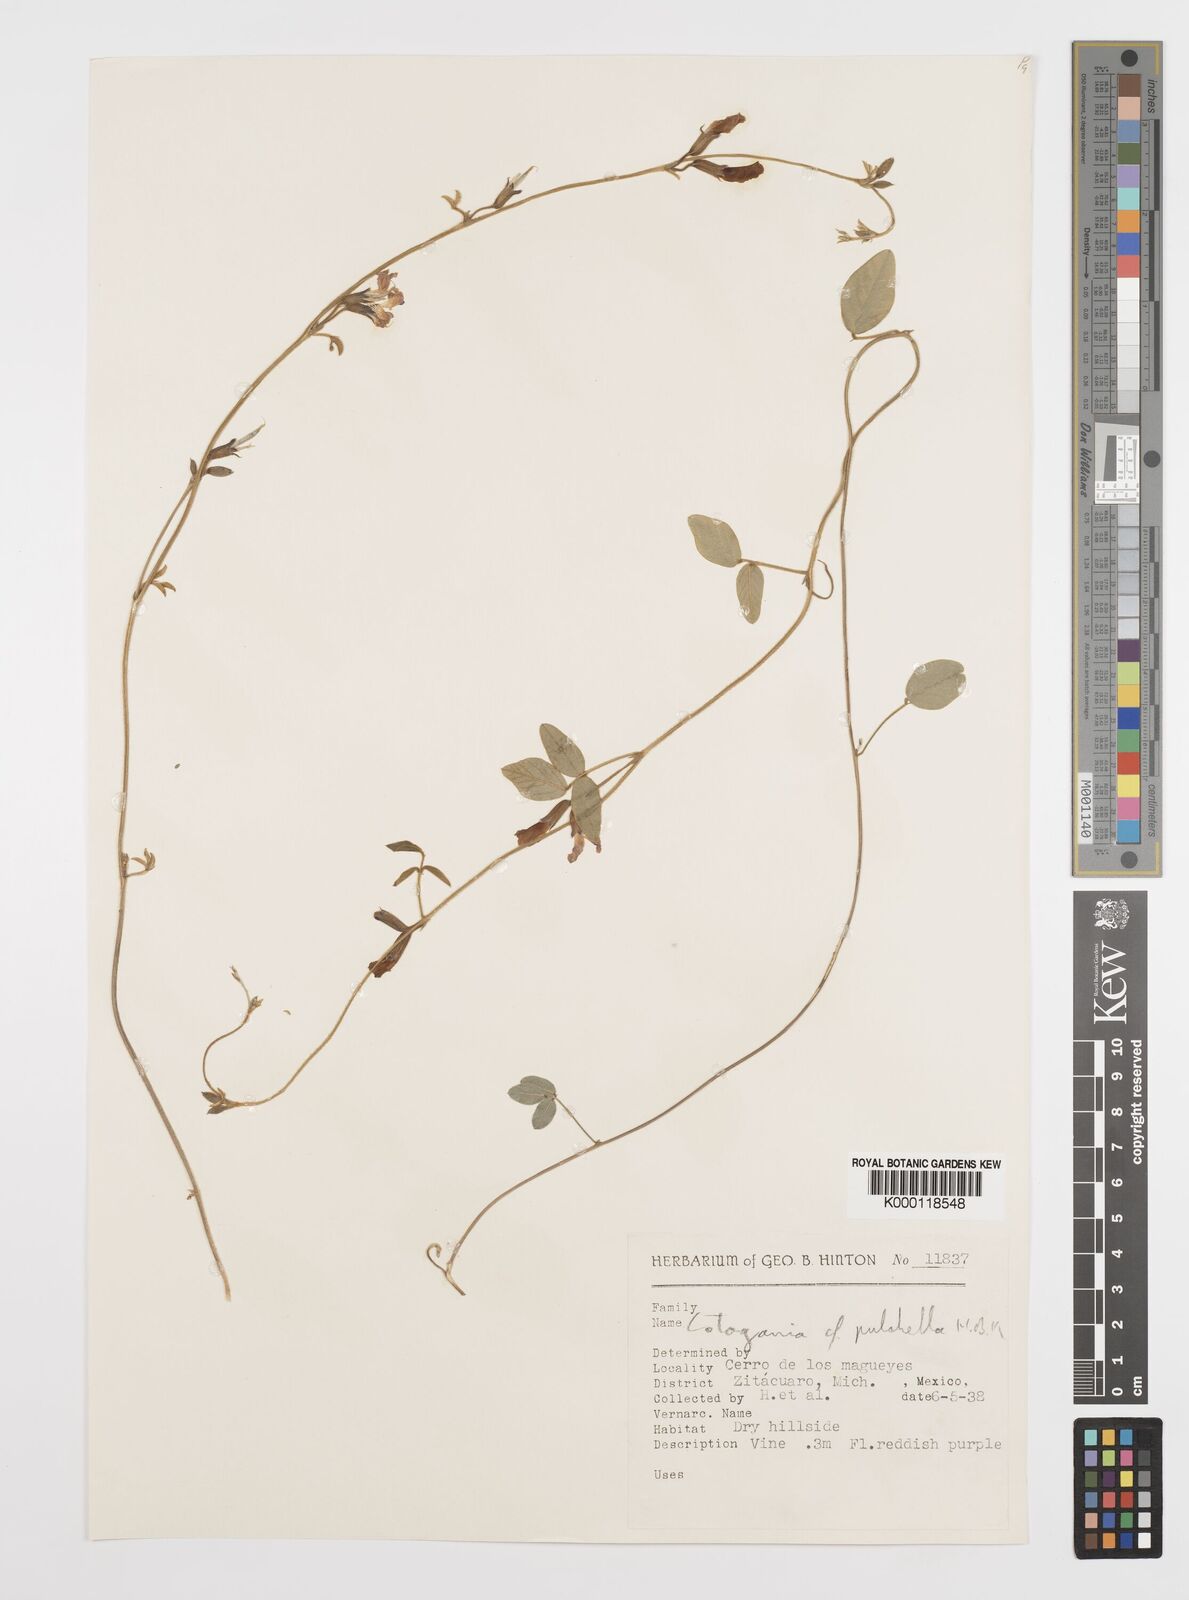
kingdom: Plantae
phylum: Tracheophyta
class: Magnoliopsida
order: Fabales
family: Fabaceae
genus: Cologania
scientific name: Cologania broussonetii
